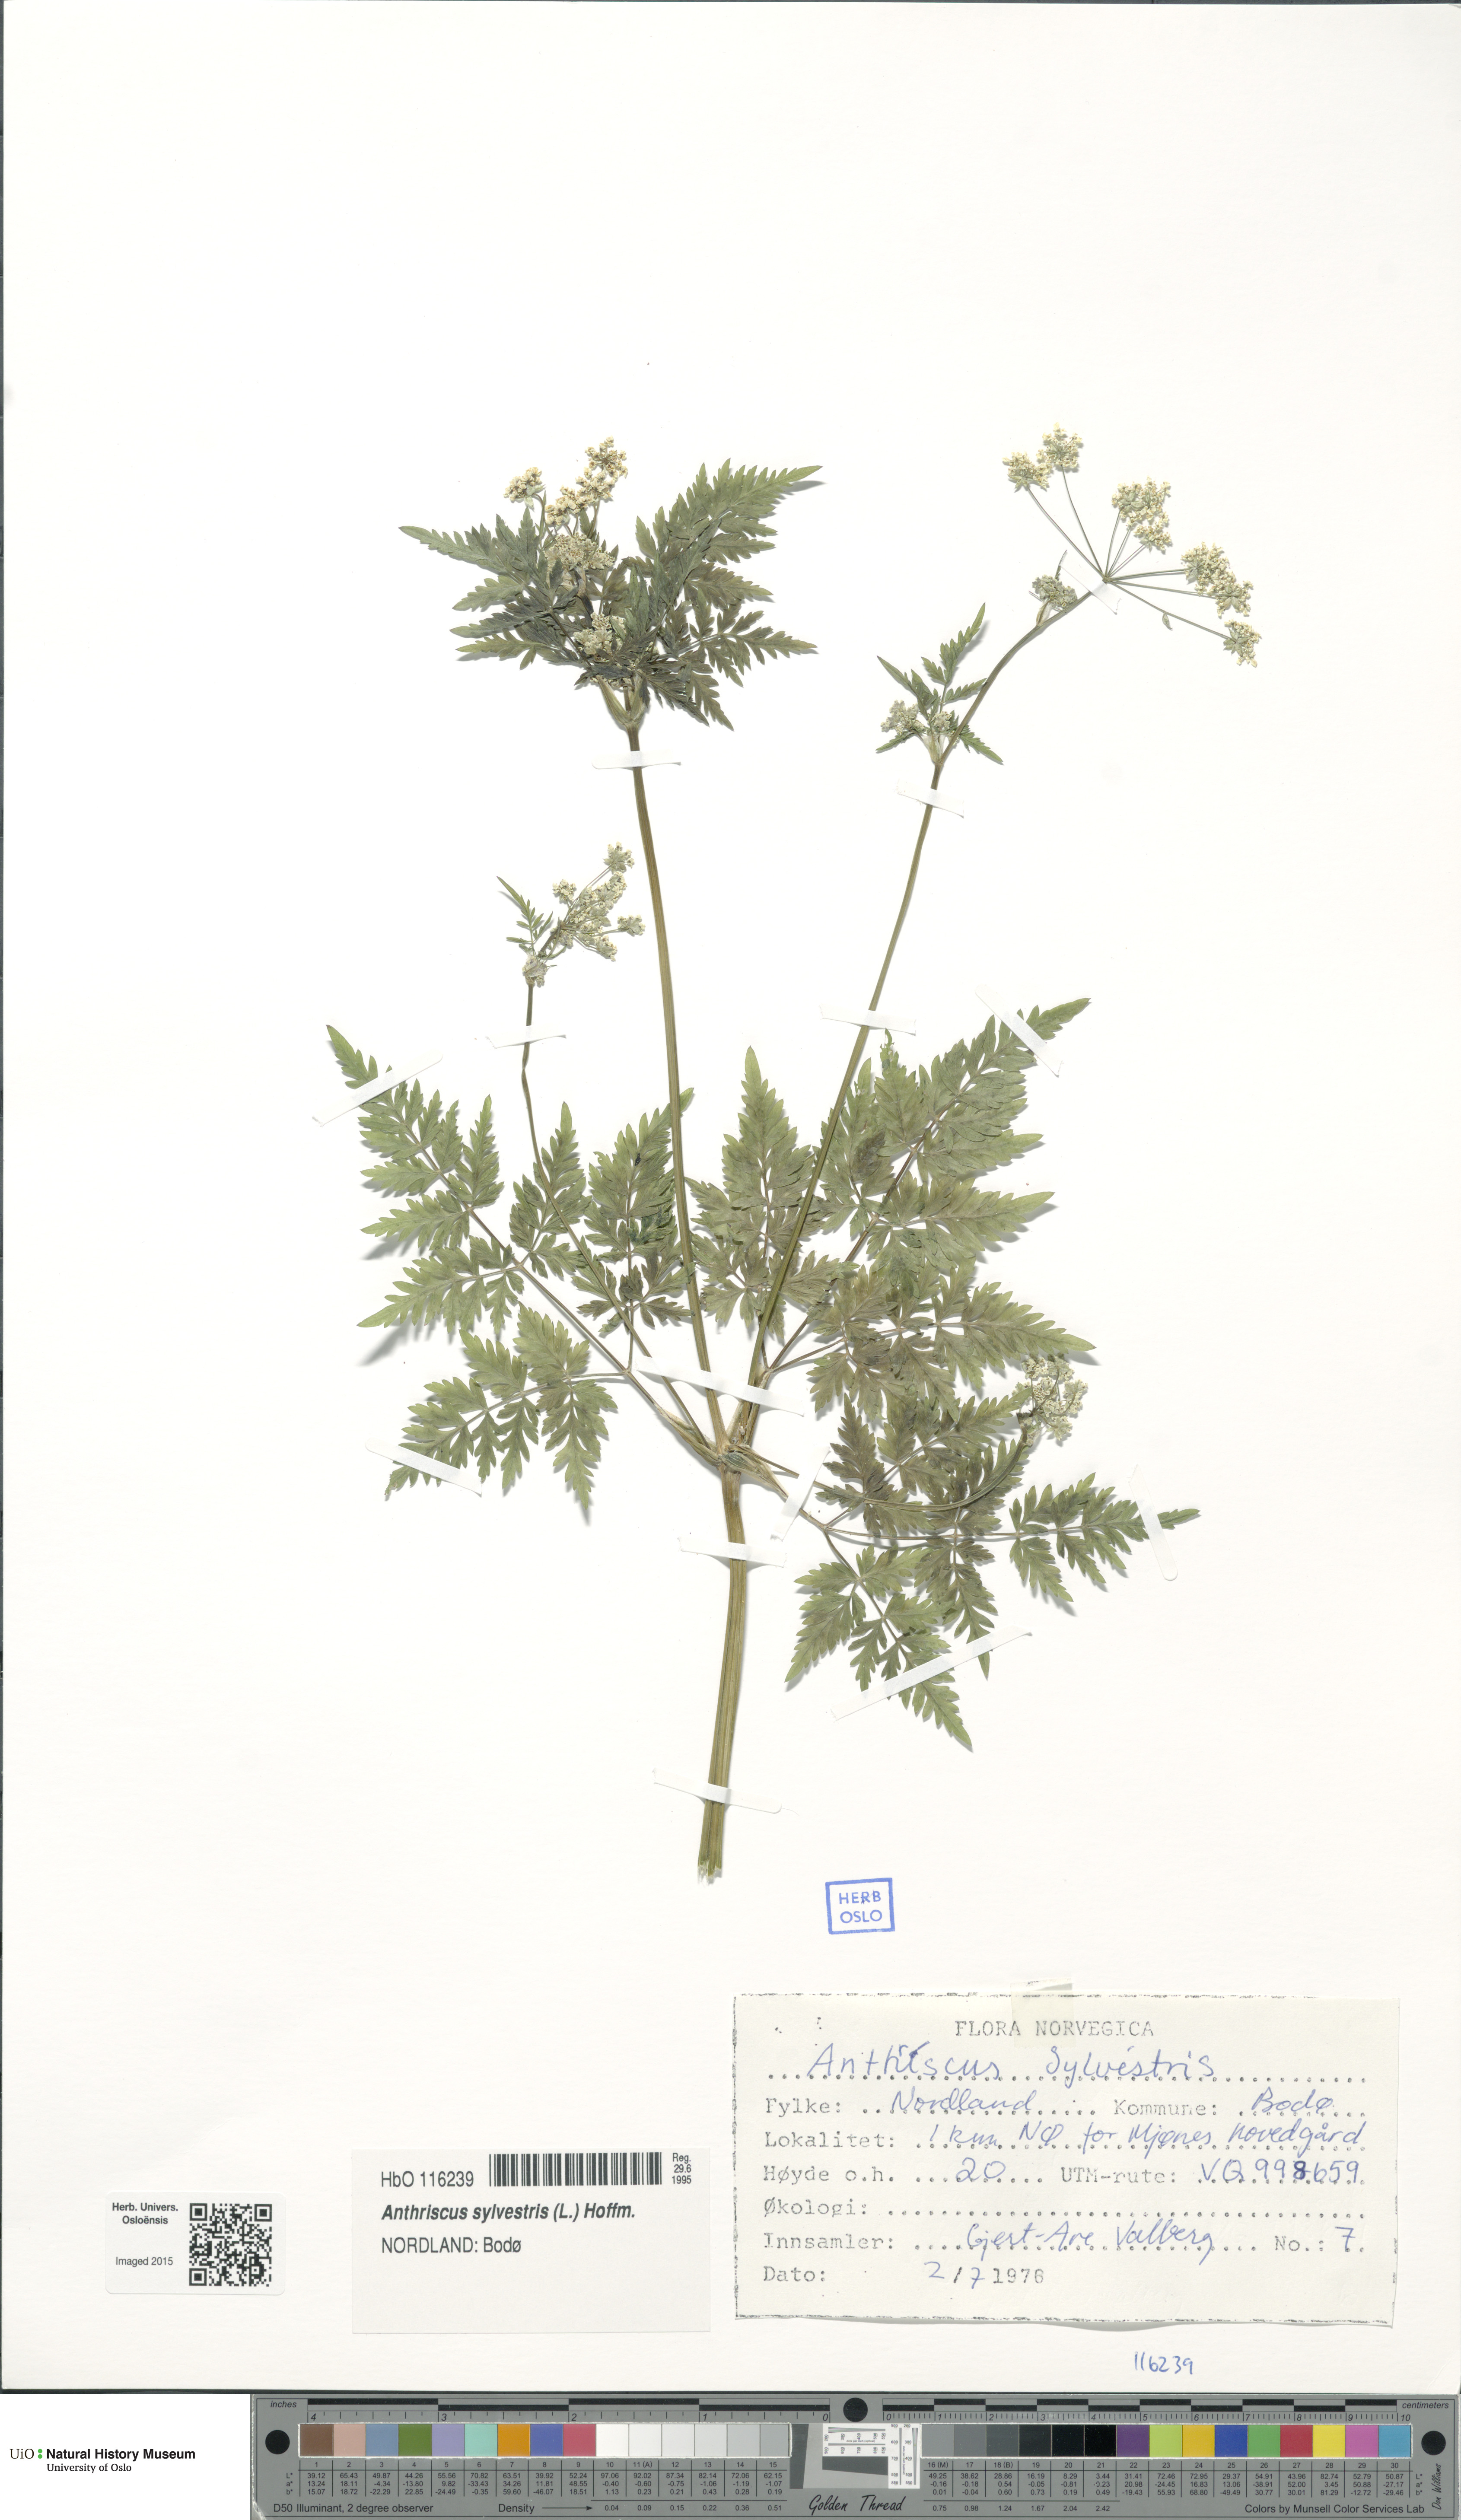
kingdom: Plantae
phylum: Tracheophyta
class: Magnoliopsida
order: Apiales
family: Apiaceae
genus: Anthriscus
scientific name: Anthriscus sylvestris
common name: Cow parsley
